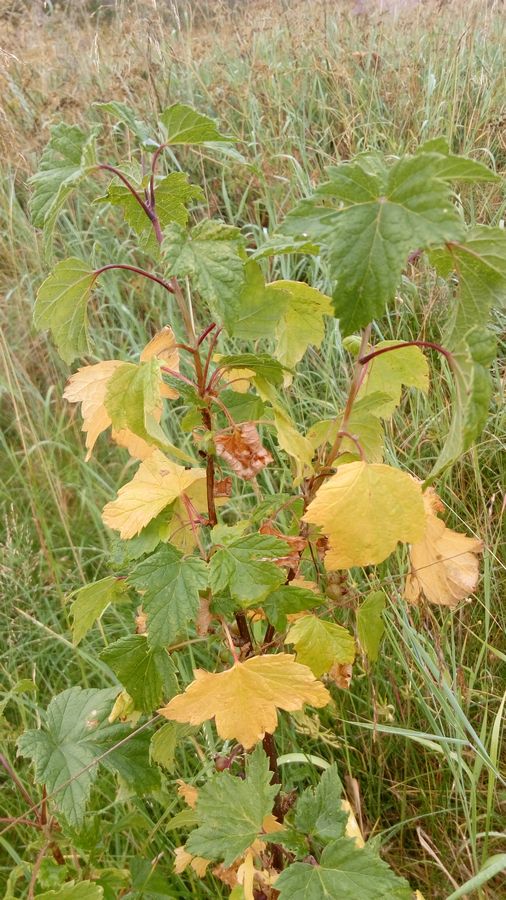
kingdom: Plantae
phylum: Tracheophyta
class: Magnoliopsida
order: Saxifragales
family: Grossulariaceae
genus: Ribes
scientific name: Ribes nigrum
